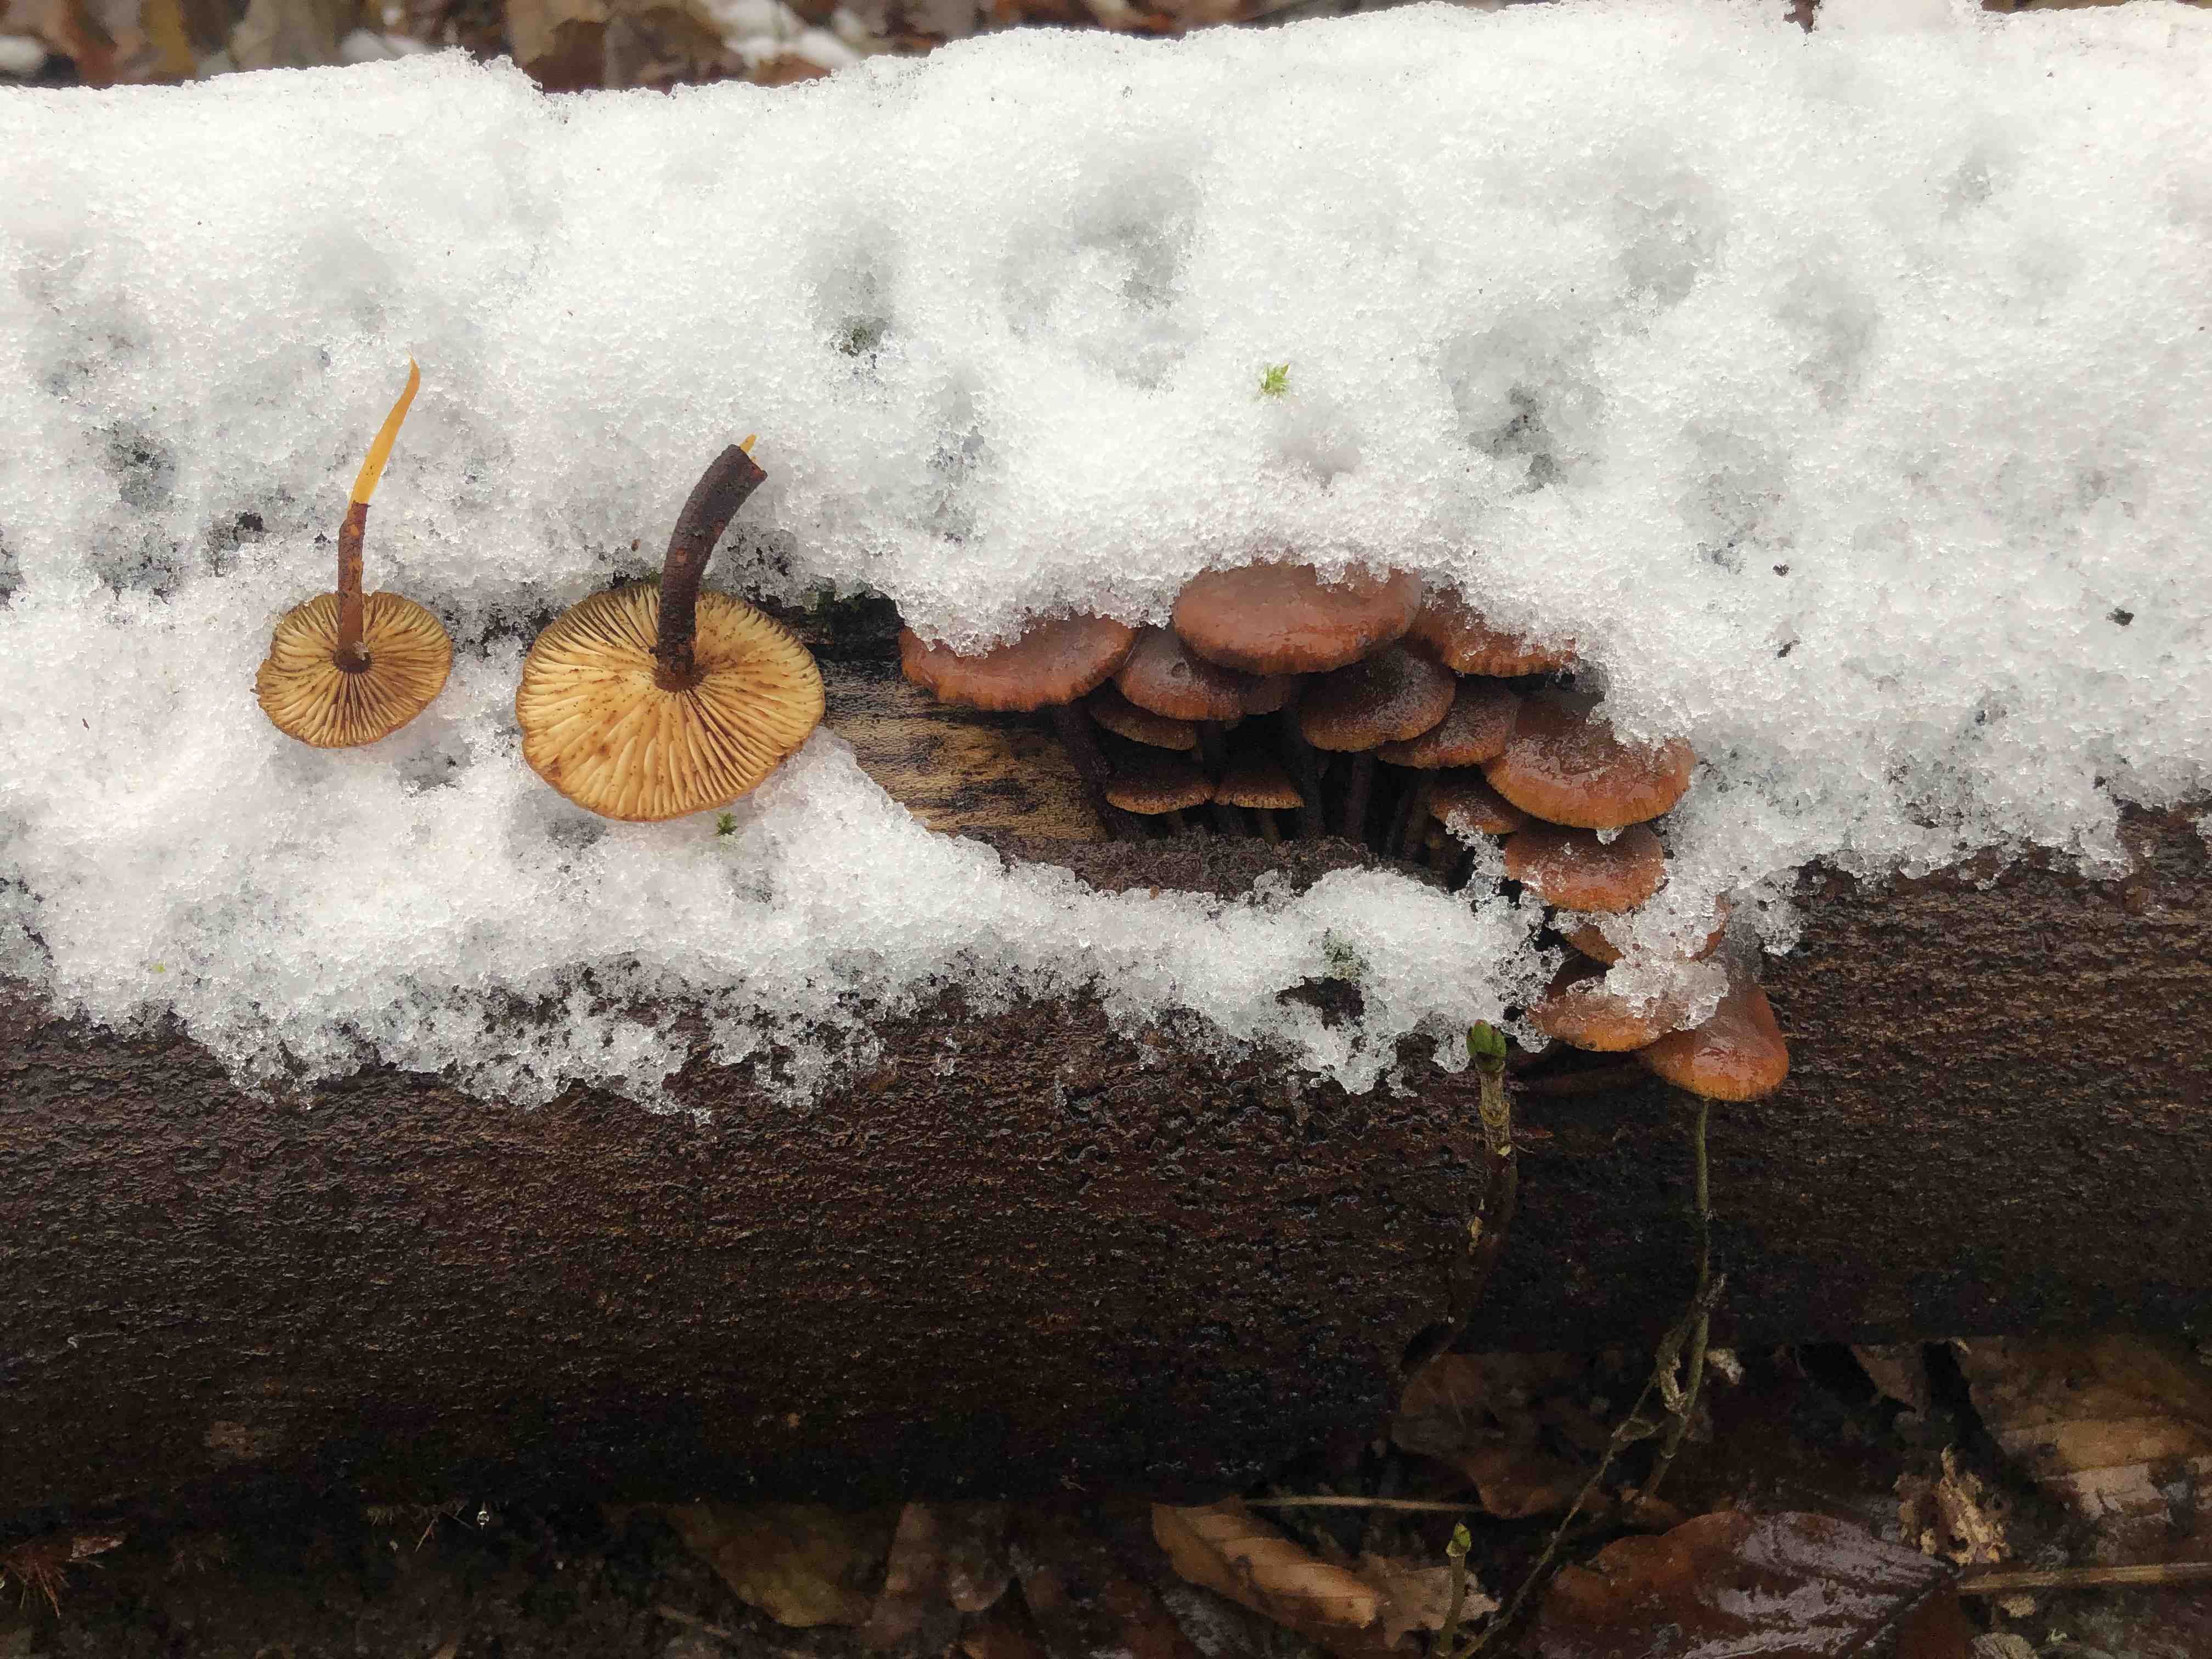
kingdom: Fungi
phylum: Basidiomycota
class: Agaricomycetes
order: Agaricales
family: Physalacriaceae
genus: Flammulina
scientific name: Flammulina
